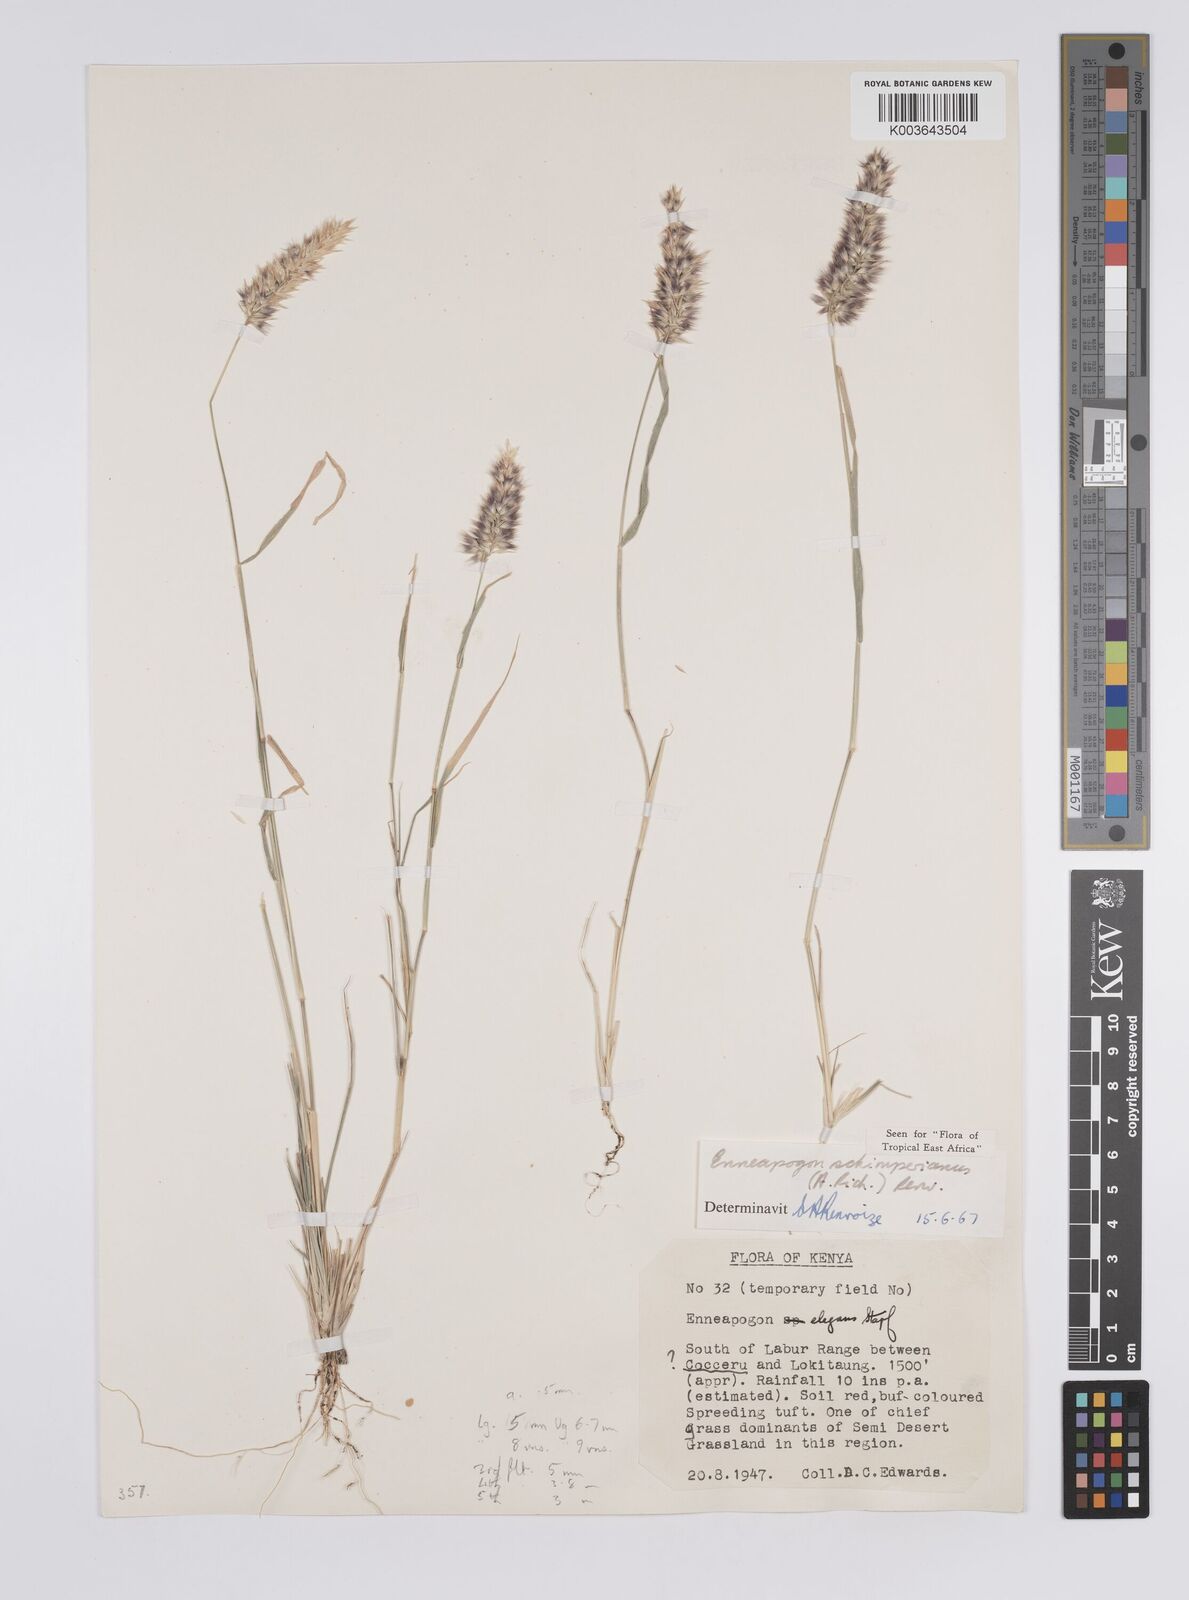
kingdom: Plantae
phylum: Tracheophyta
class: Liliopsida
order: Poales
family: Poaceae
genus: Enneapogon
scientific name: Enneapogon persicus
